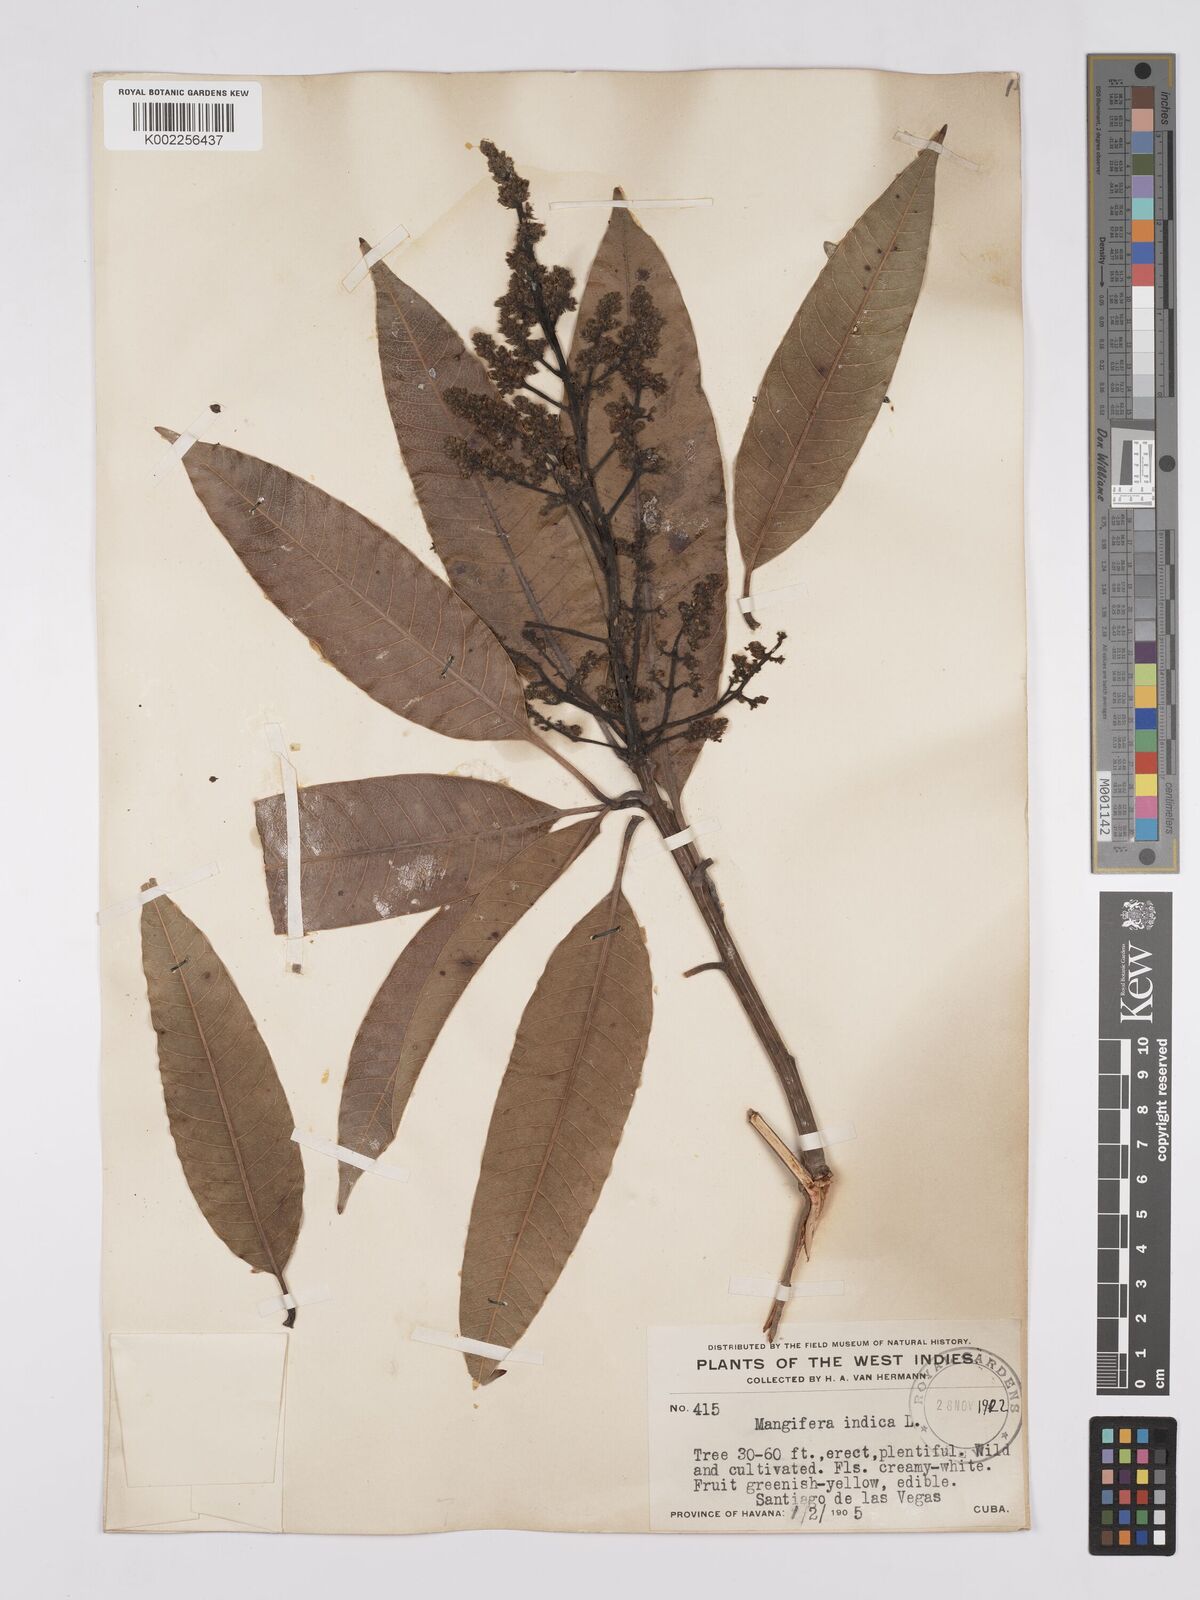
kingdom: Plantae
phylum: Tracheophyta
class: Magnoliopsida
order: Sapindales
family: Anacardiaceae
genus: Mangifera
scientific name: Mangifera indica
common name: Mango
